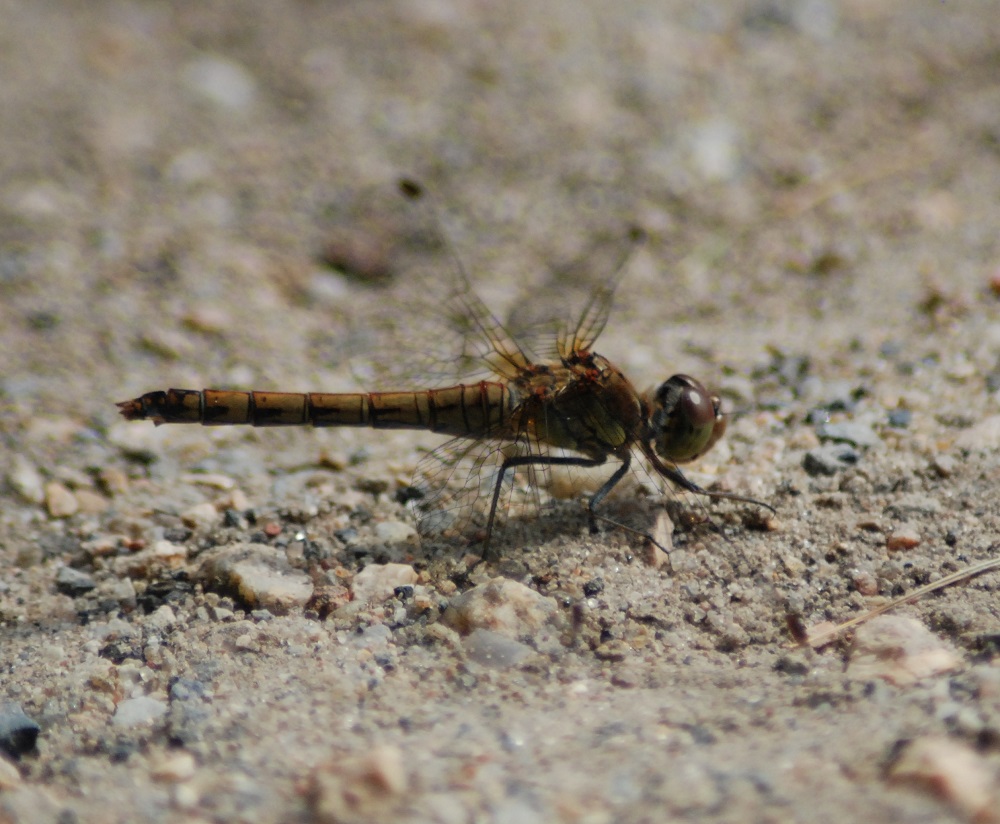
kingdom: Animalia
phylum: Arthropoda
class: Insecta
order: Odonata
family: Libellulidae
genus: Sympetrum
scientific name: Sympetrum striolatum
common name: Common darter
